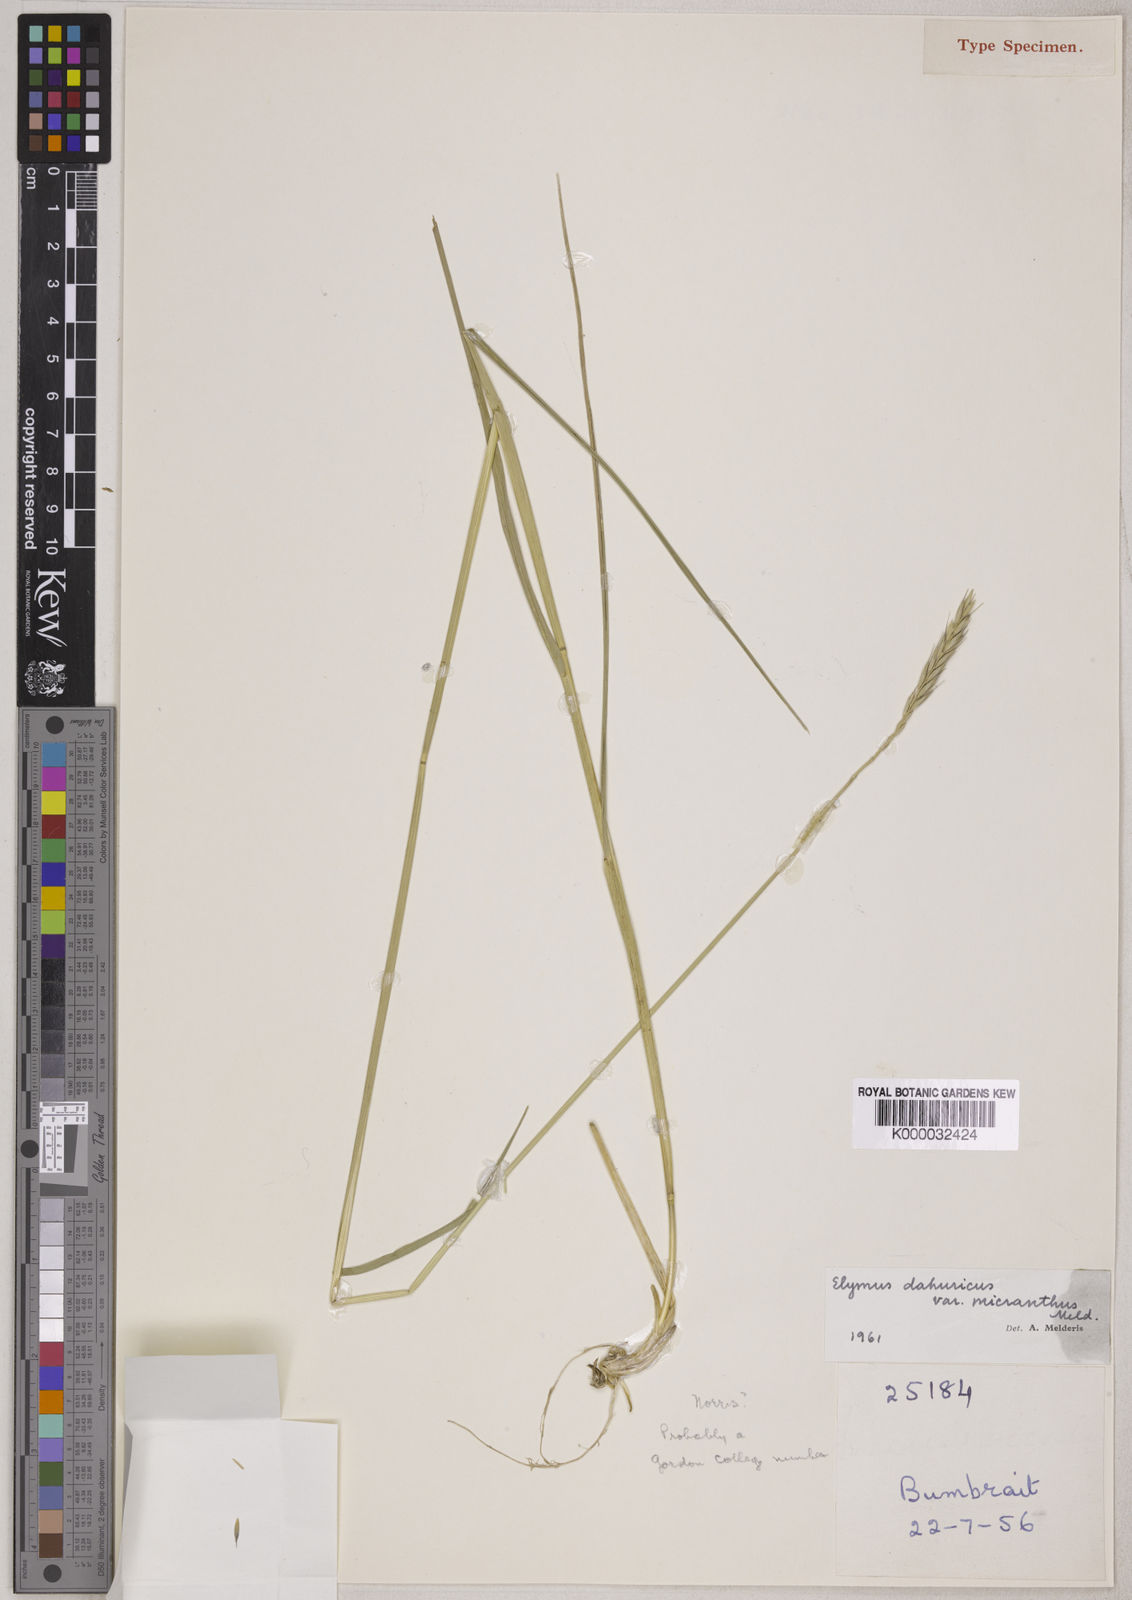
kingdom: Plantae
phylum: Tracheophyta
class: Liliopsida
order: Poales
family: Poaceae
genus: Elymus
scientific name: Elymus dahuricus
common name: Dahurian wild rye
